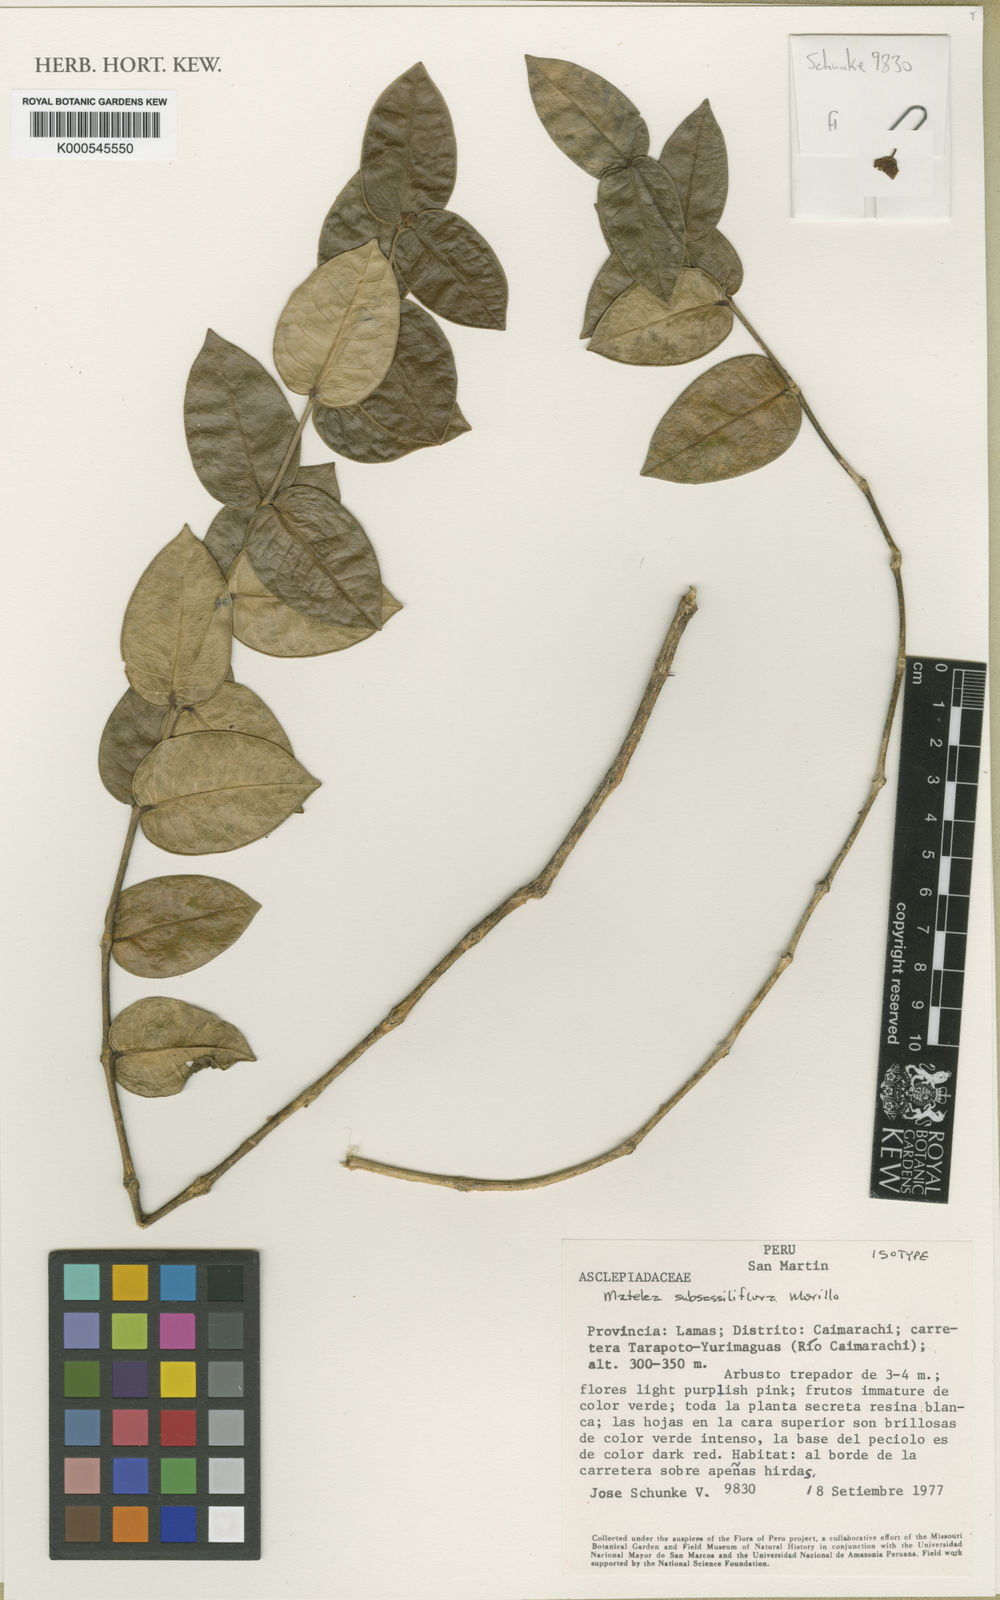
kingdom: Plantae
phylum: Tracheophyta
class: Magnoliopsida
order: Gentianales
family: Apocynaceae
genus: Matelea
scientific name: Matelea subsessilifolia
